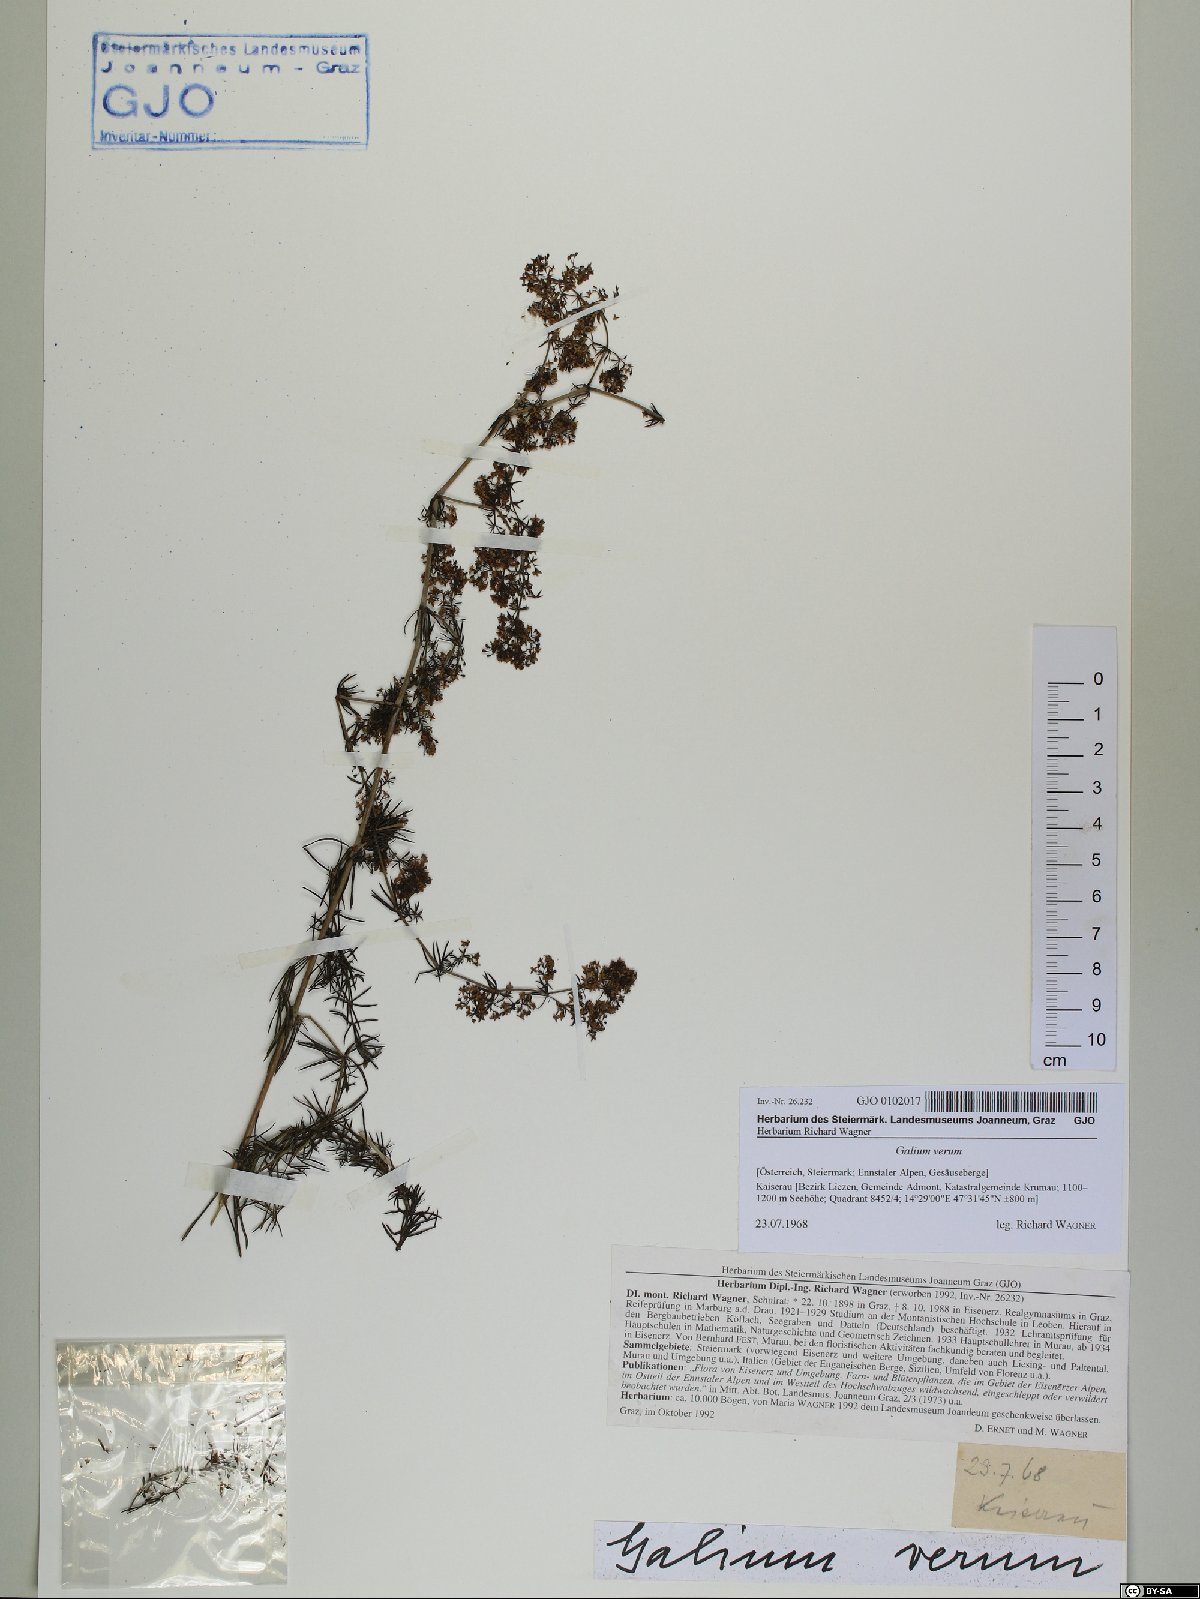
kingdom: Plantae
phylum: Tracheophyta
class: Magnoliopsida
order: Gentianales
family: Rubiaceae
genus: Galium
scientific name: Galium verum
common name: Lady's bedstraw
